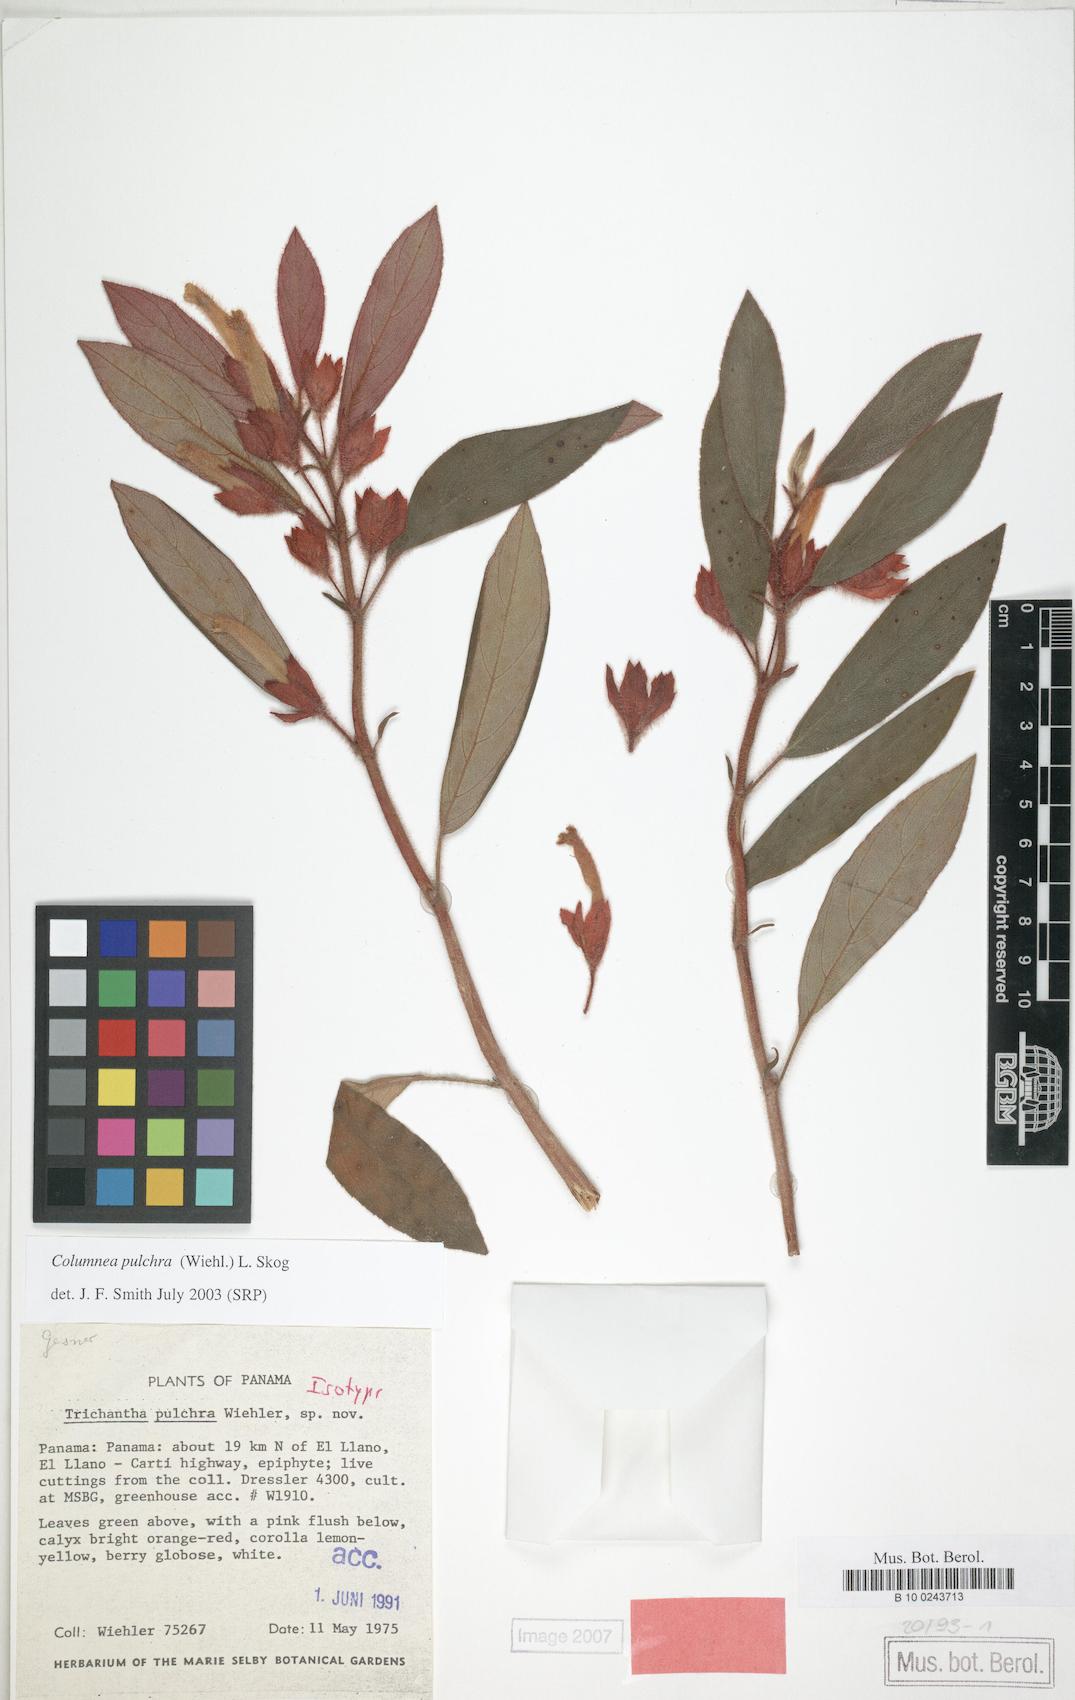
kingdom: Plantae
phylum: Tracheophyta
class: Magnoliopsida
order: Lamiales
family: Gesneriaceae
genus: Columnea
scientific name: Columnea pulchra
